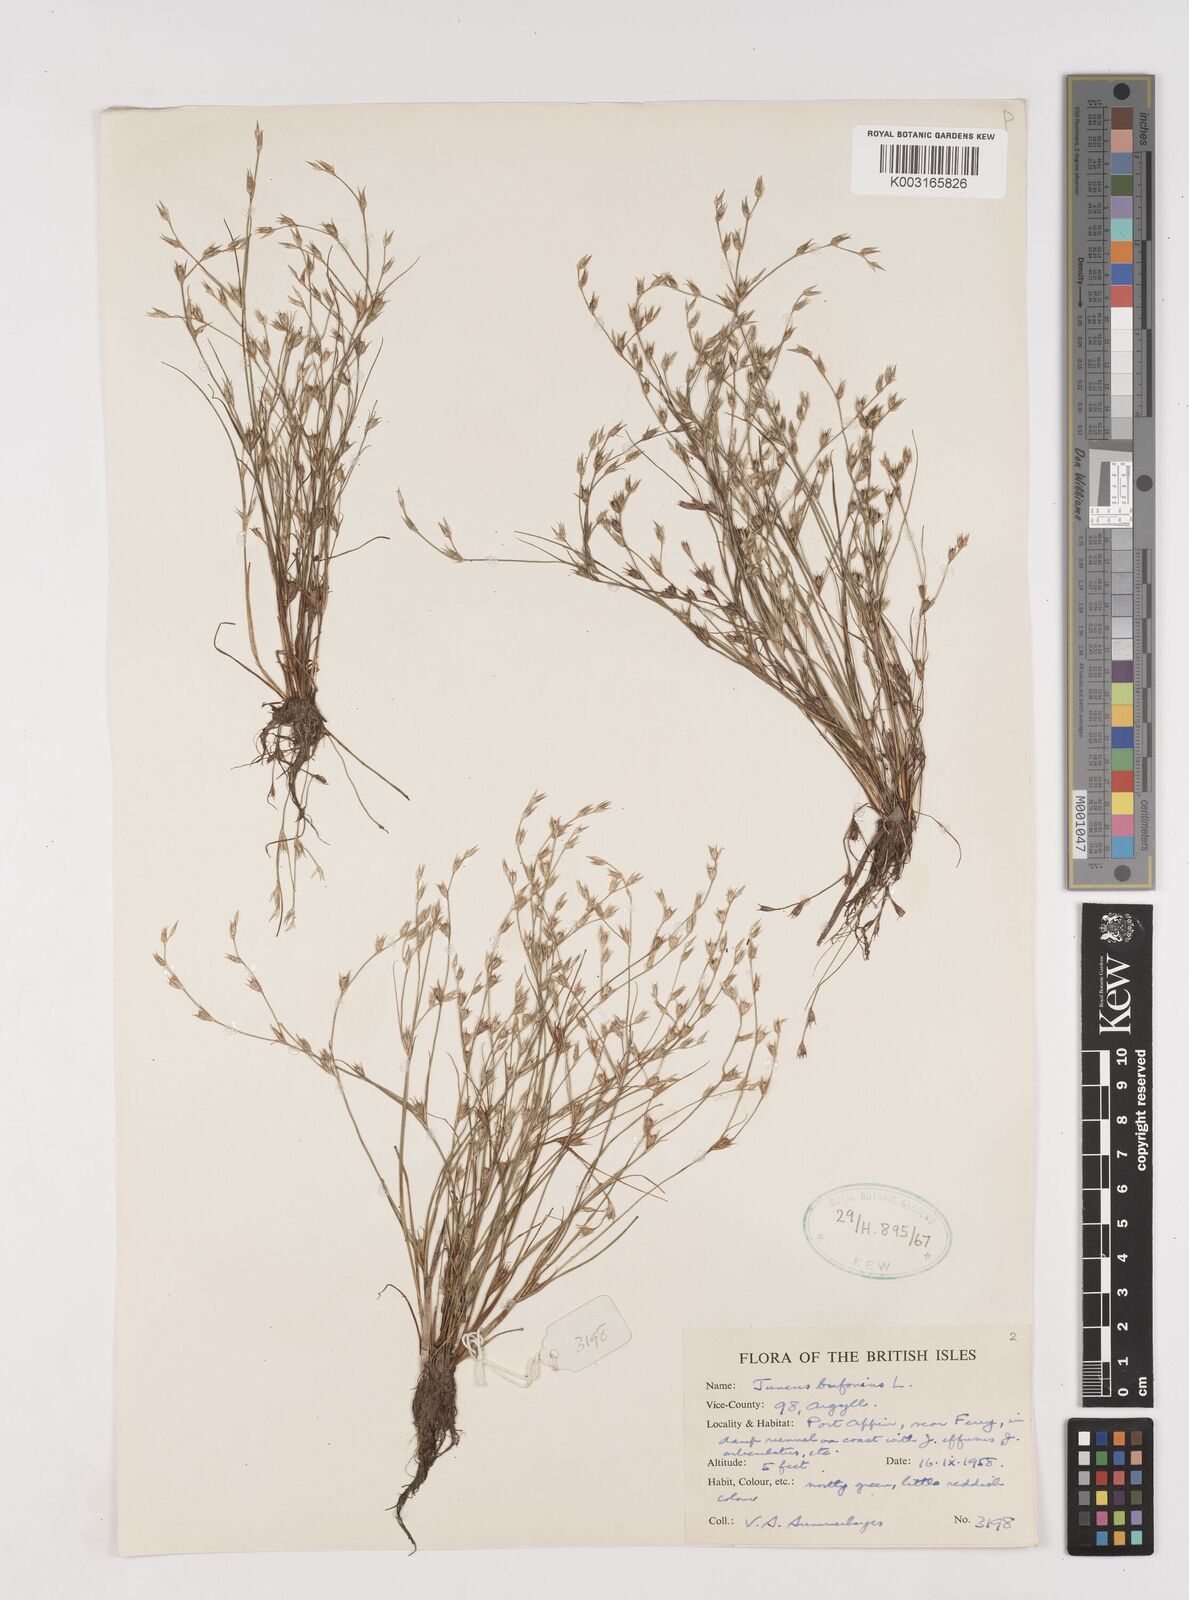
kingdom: Plantae
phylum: Tracheophyta
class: Liliopsida
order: Poales
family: Juncaceae
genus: Juncus
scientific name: Juncus bufonius
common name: Toad rush
